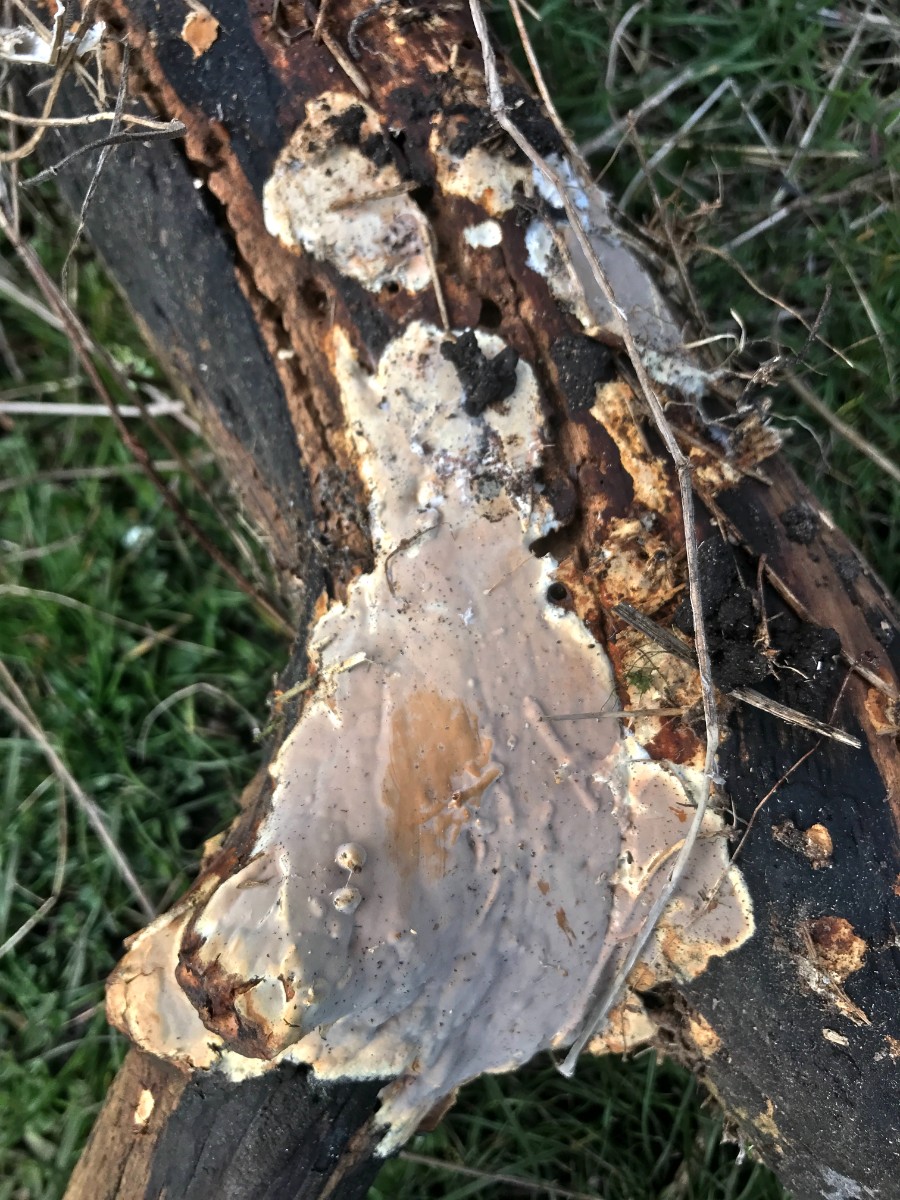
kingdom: Fungi
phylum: Basidiomycota
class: Agaricomycetes
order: Russulales
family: Peniophoraceae
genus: Scytinostroma
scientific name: Scytinostroma hemidichophyticum
